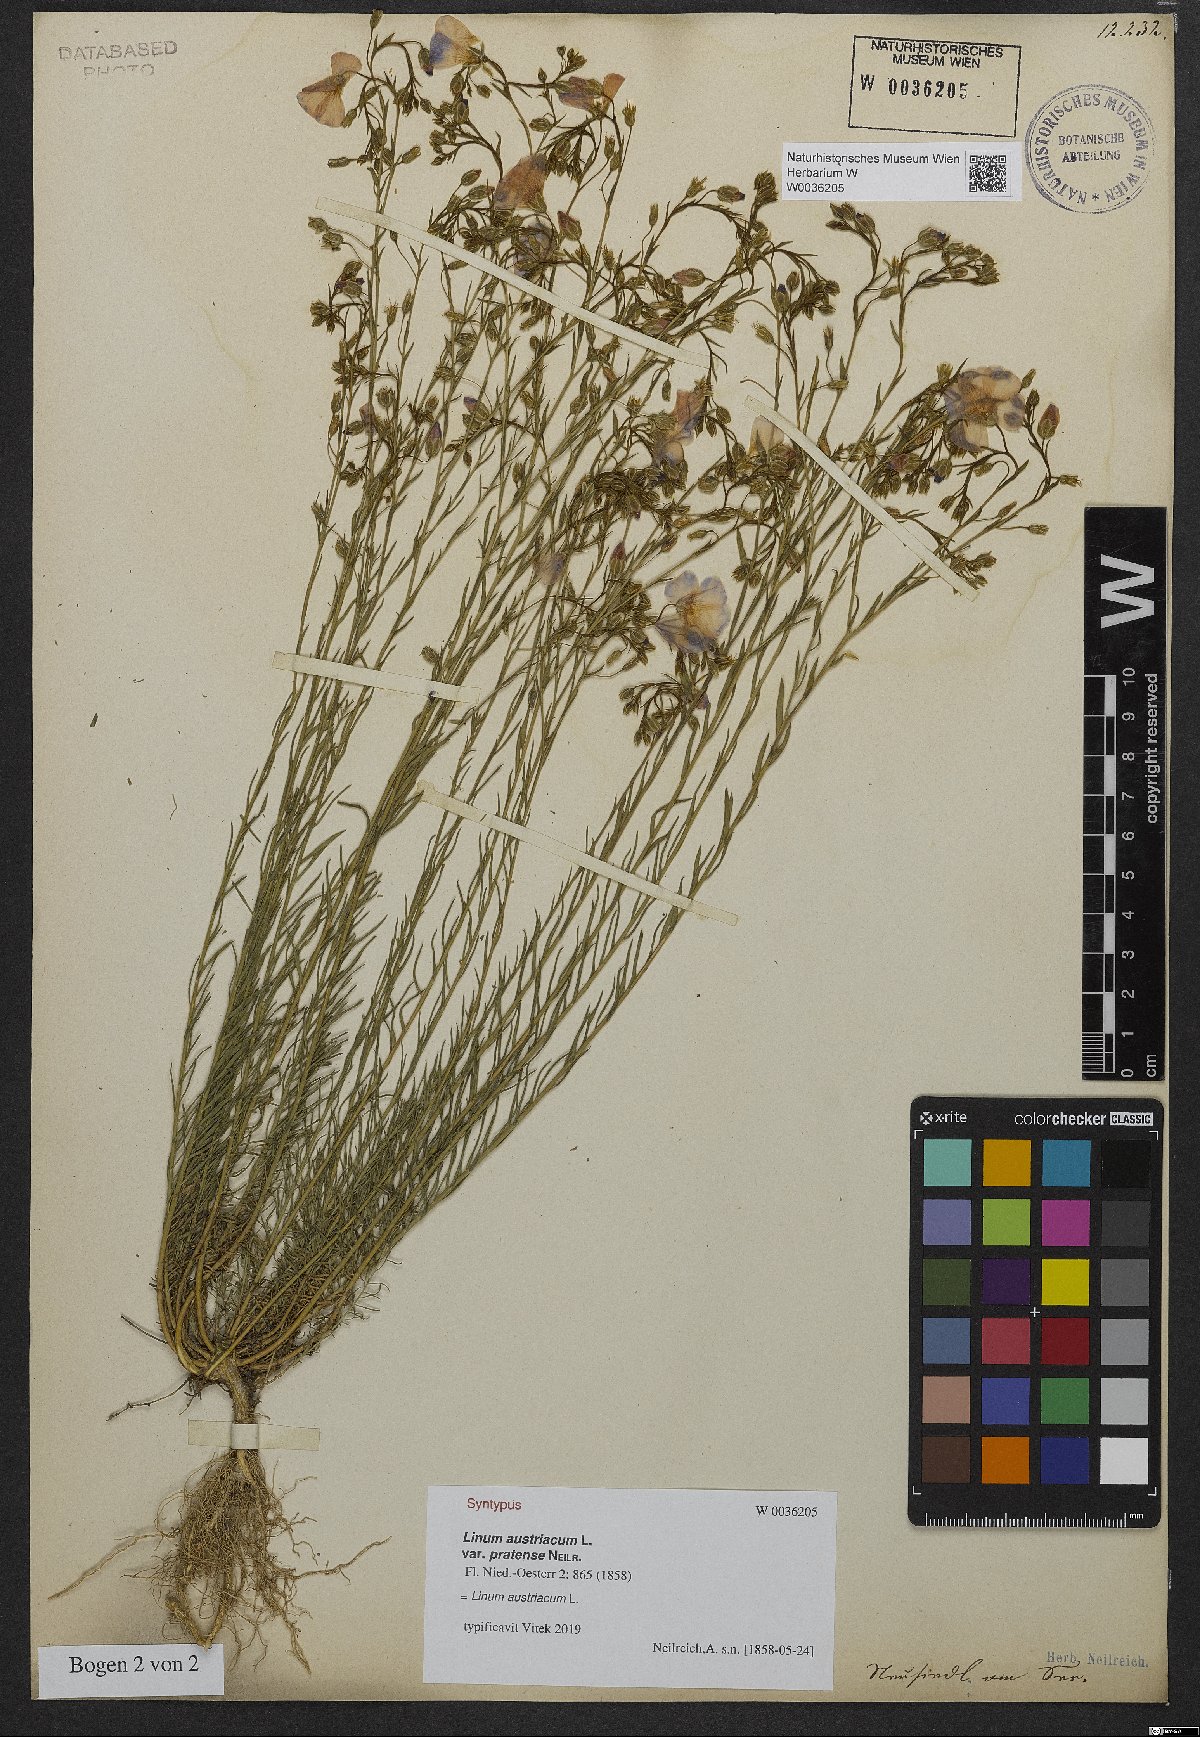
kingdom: Plantae
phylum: Tracheophyta
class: Magnoliopsida
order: Malpighiales
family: Linaceae
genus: Linum
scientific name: Linum austriacum
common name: Austrian flax
